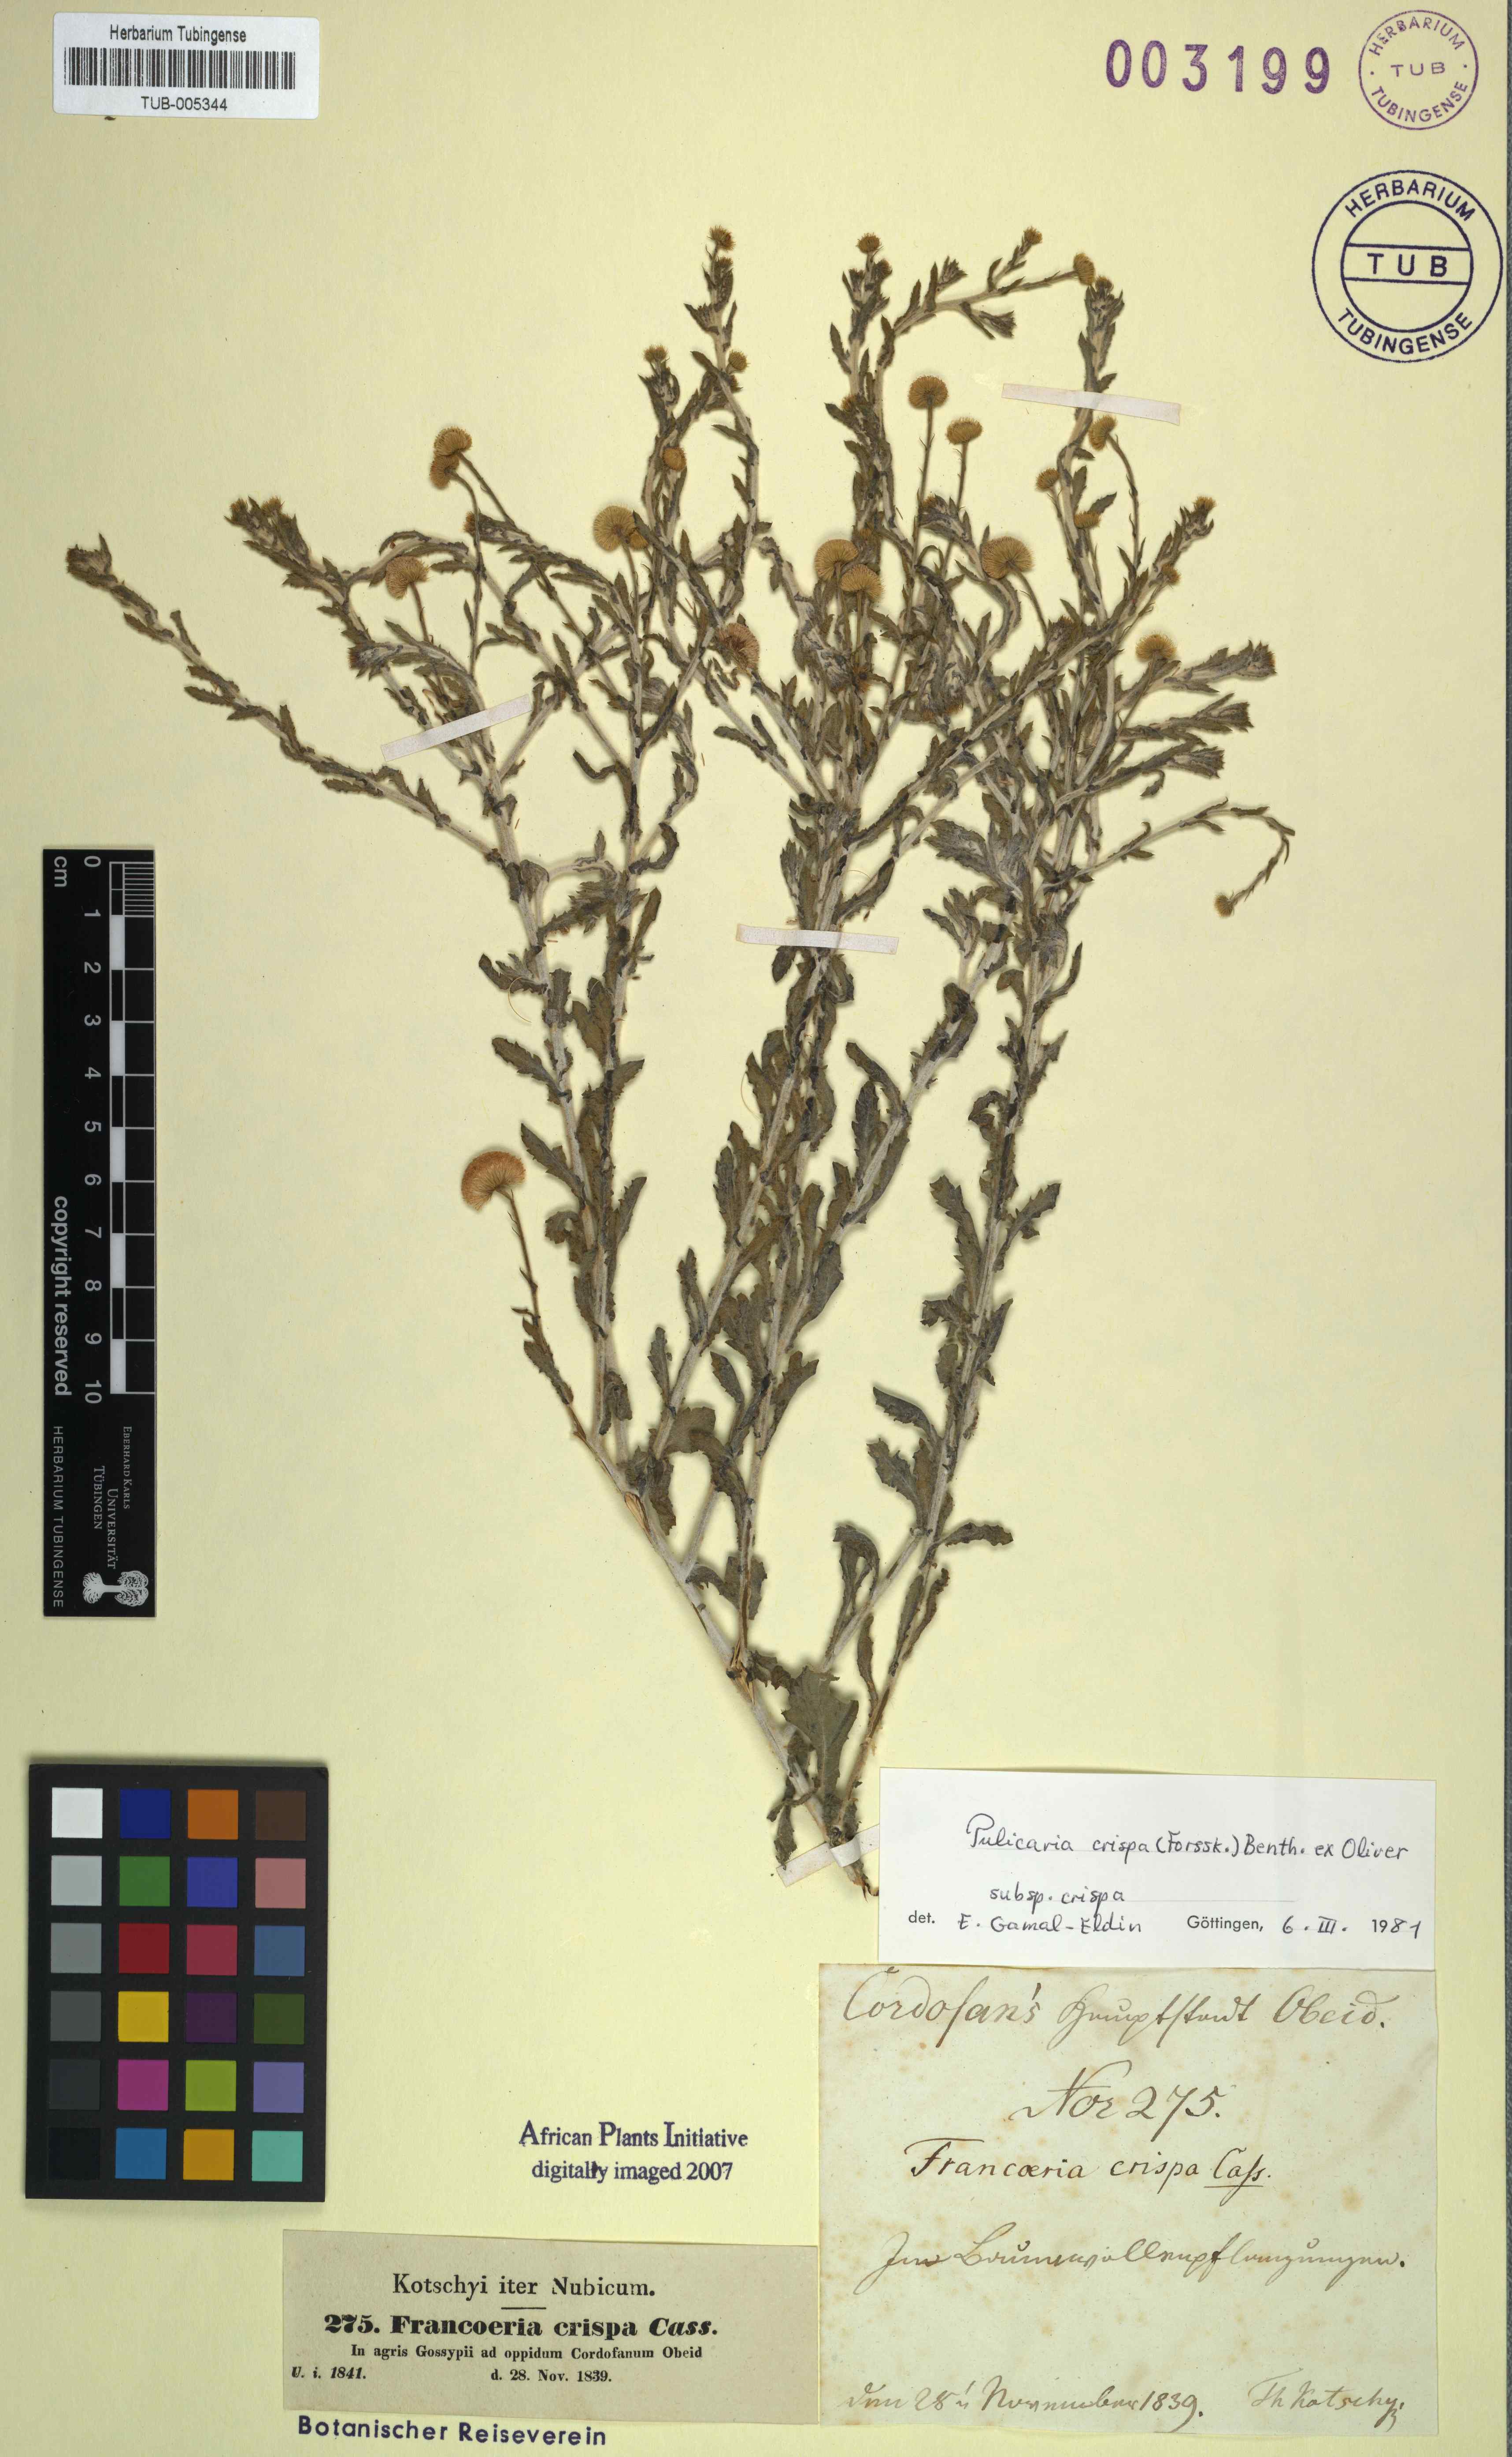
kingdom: Plantae
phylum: Tracheophyta
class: Magnoliopsida
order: Asterales
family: Asteraceae
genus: Pulicaria
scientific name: Pulicaria crispa
